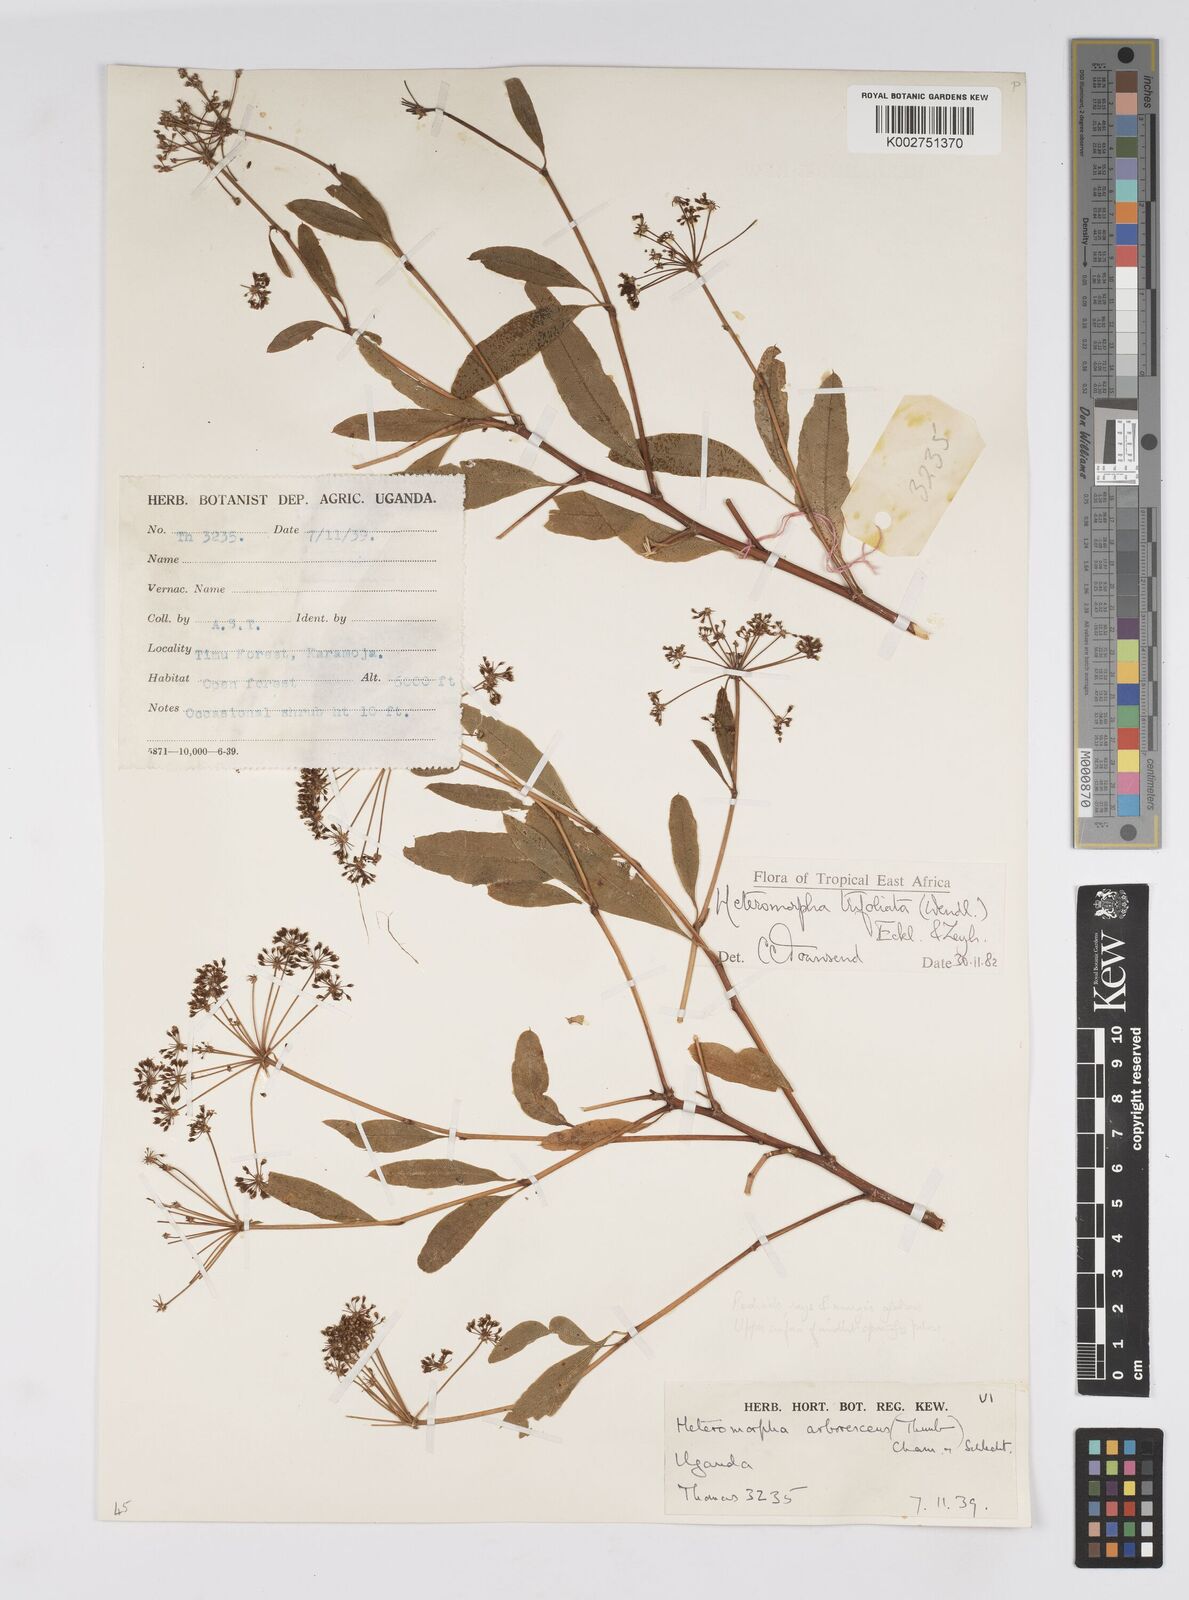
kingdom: Plantae
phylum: Tracheophyta
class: Magnoliopsida
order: Apiales
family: Apiaceae
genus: Heteromorpha
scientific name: Heteromorpha arborescens
